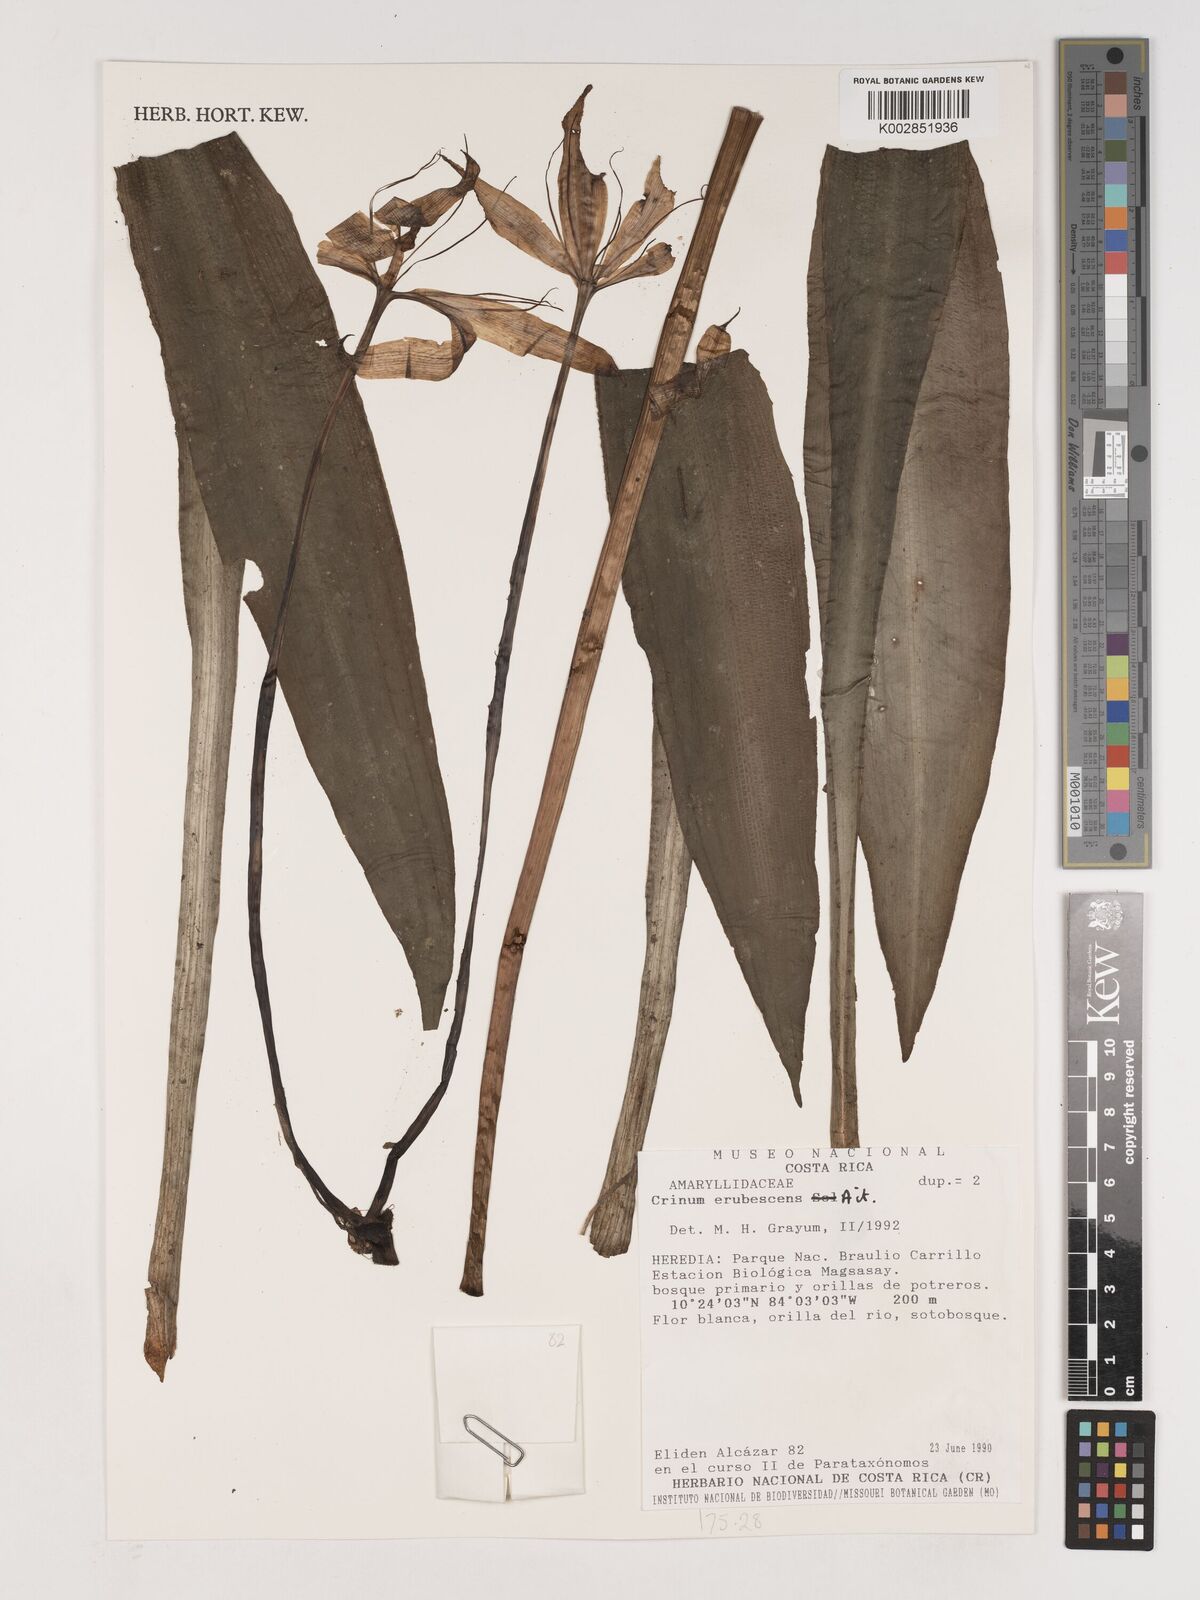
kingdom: Plantae
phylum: Tracheophyta
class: Liliopsida
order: Asparagales
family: Amaryllidaceae
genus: Crinum
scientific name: Crinum kunthianum
